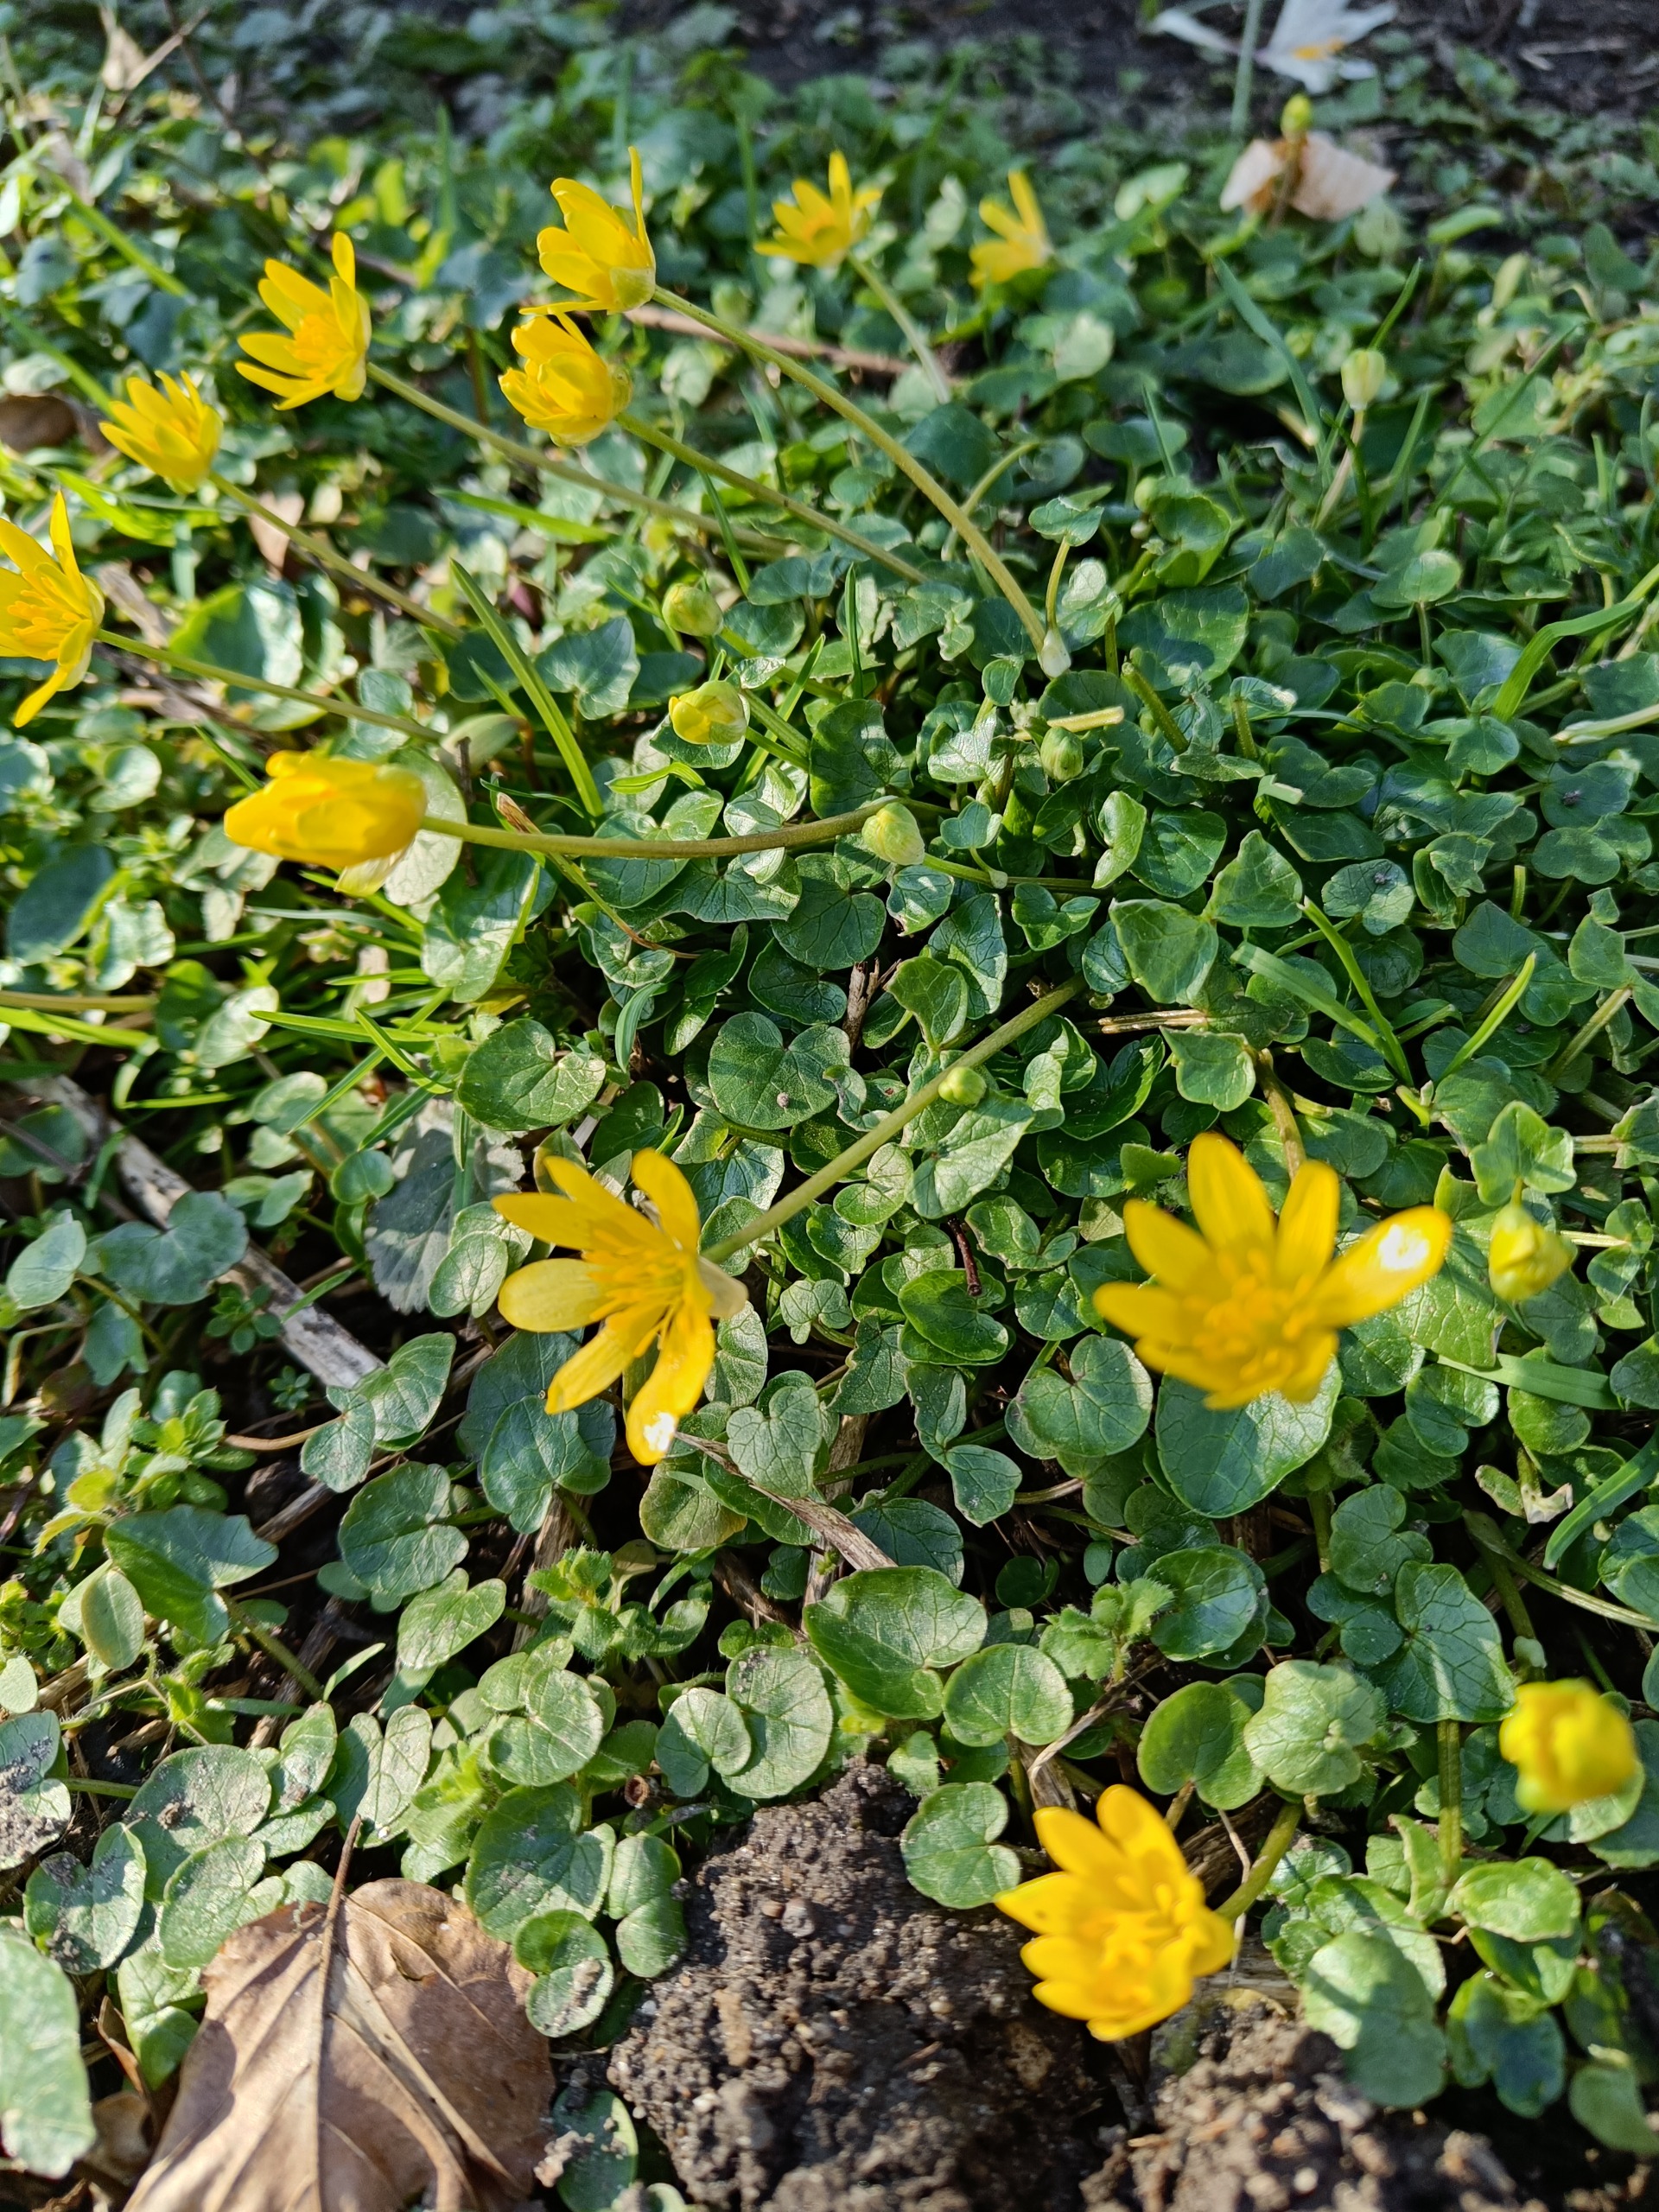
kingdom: Plantae
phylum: Tracheophyta
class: Magnoliopsida
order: Ranunculales
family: Ranunculaceae
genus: Ficaria
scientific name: Ficaria verna
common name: Vorterod
